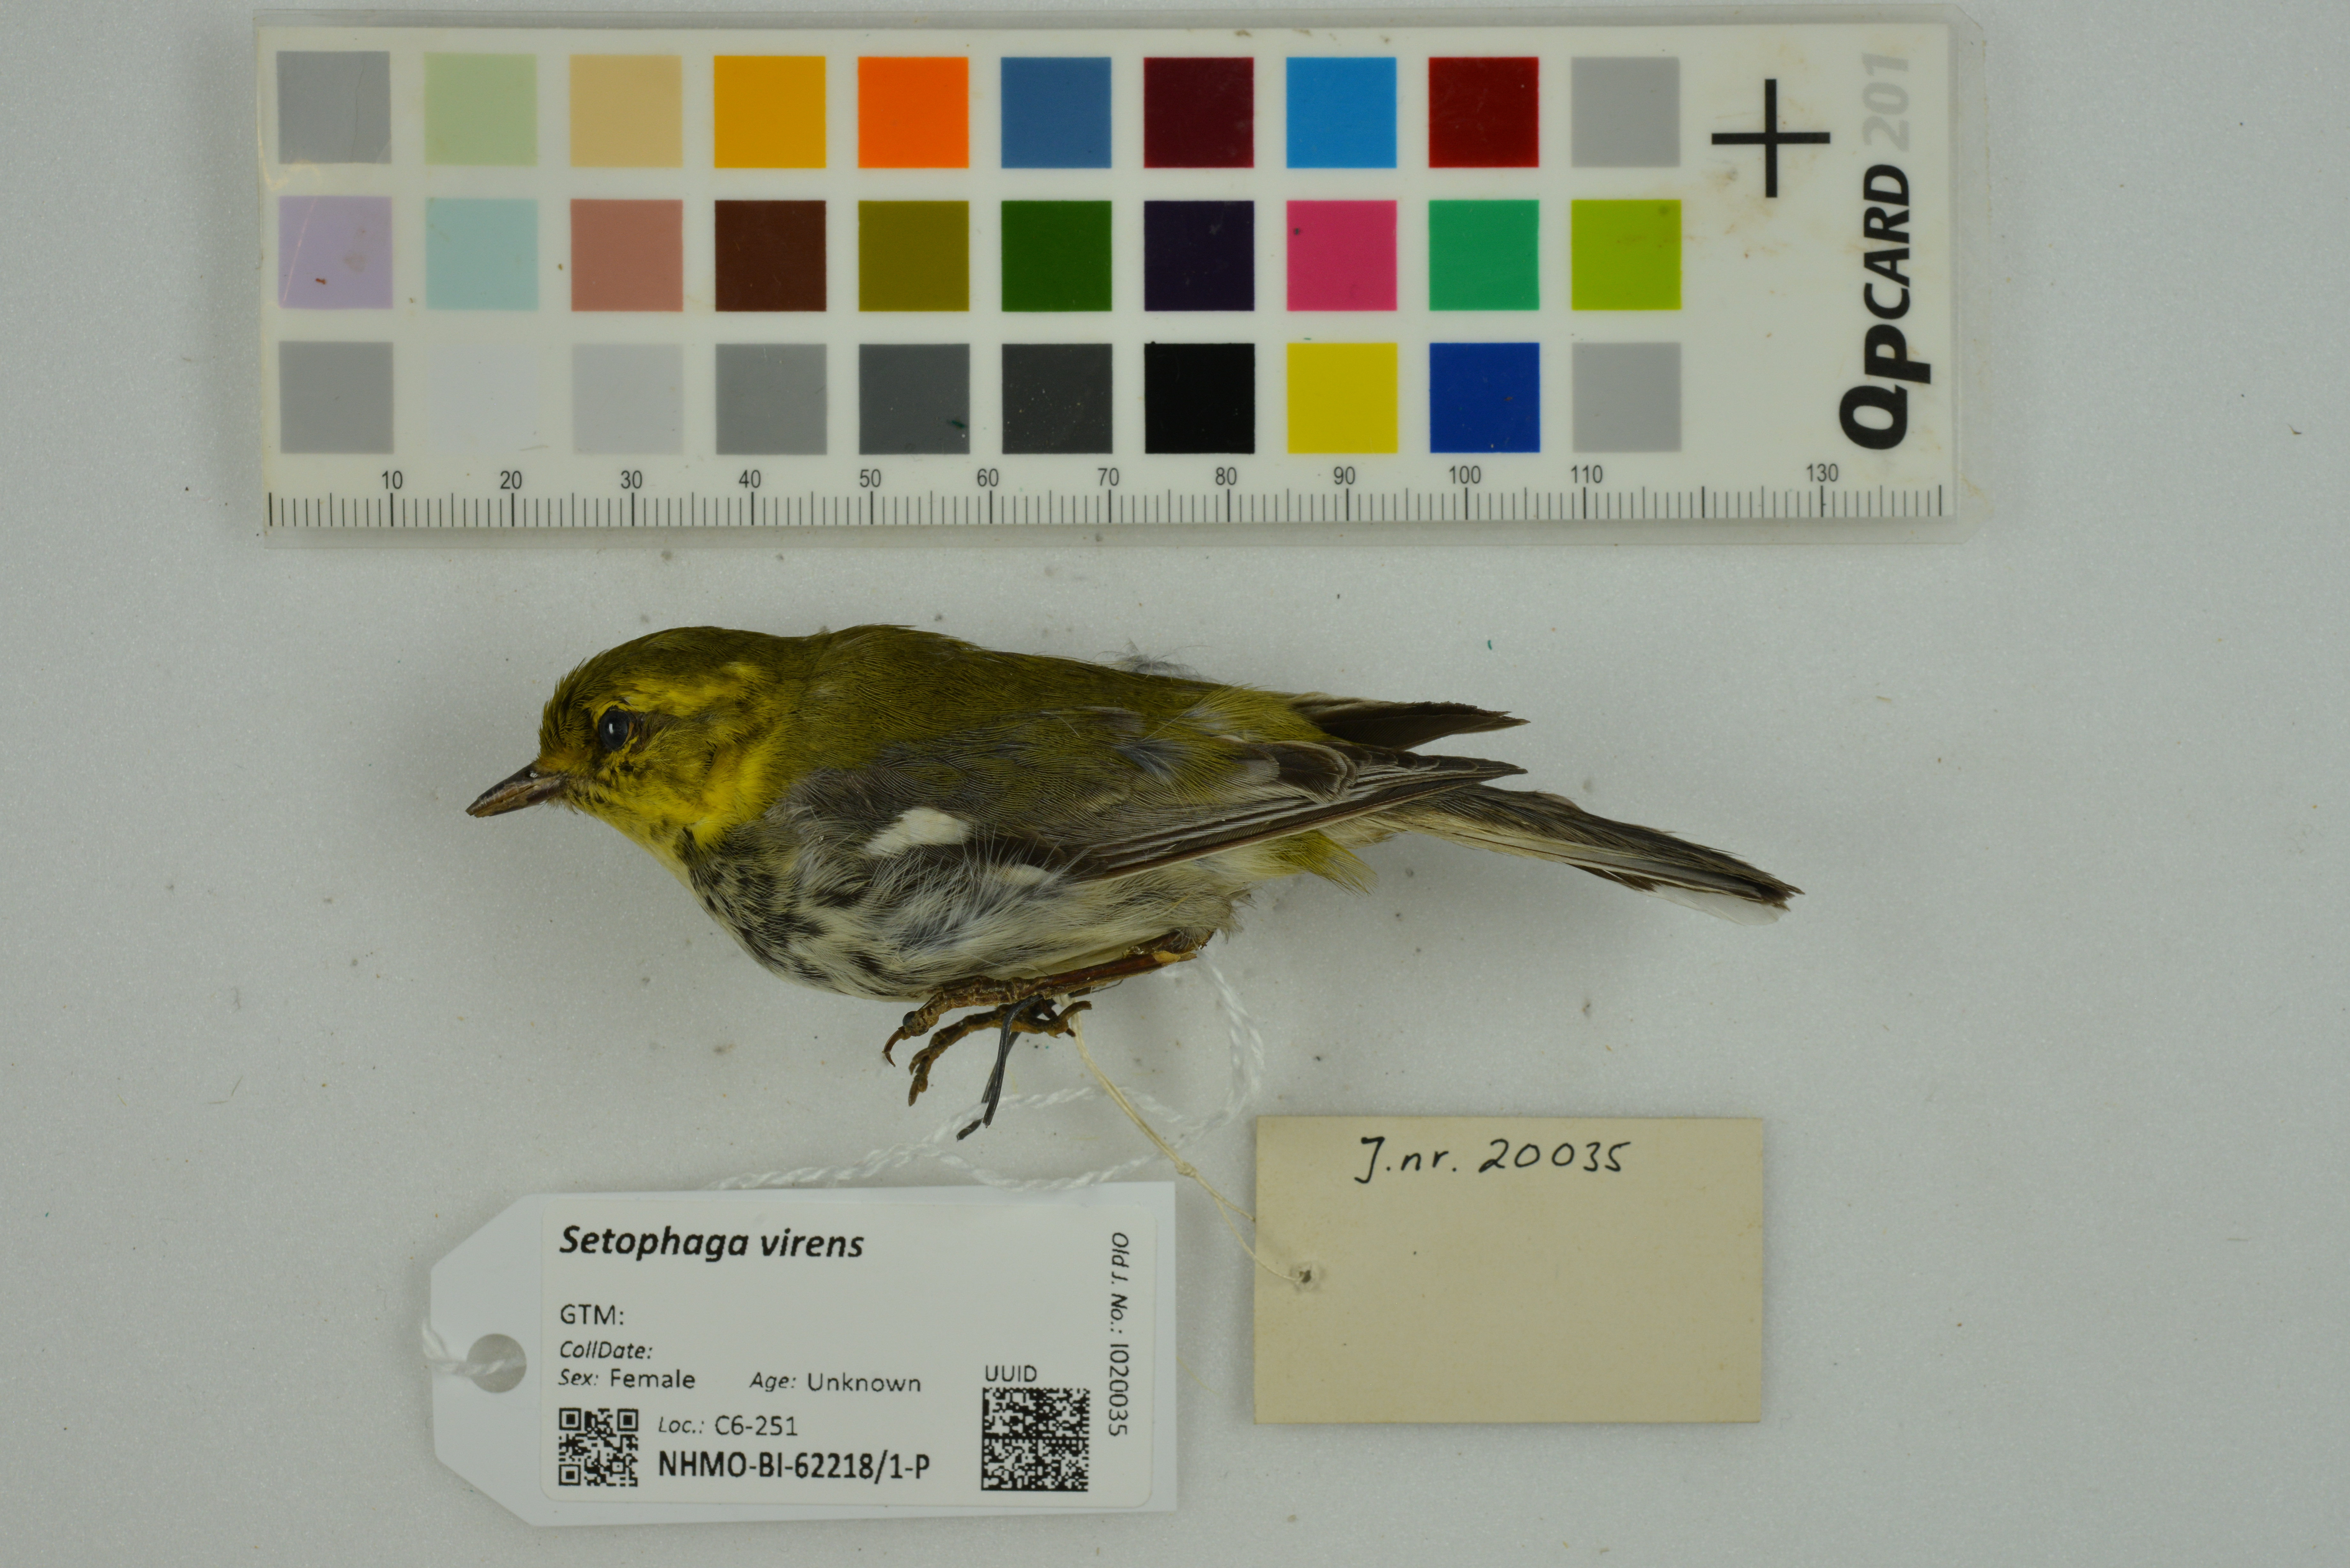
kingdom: Animalia
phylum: Chordata
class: Aves
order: Passeriformes
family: Parulidae
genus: Setophaga
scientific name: Setophaga virens
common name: Black-throated green warbler
